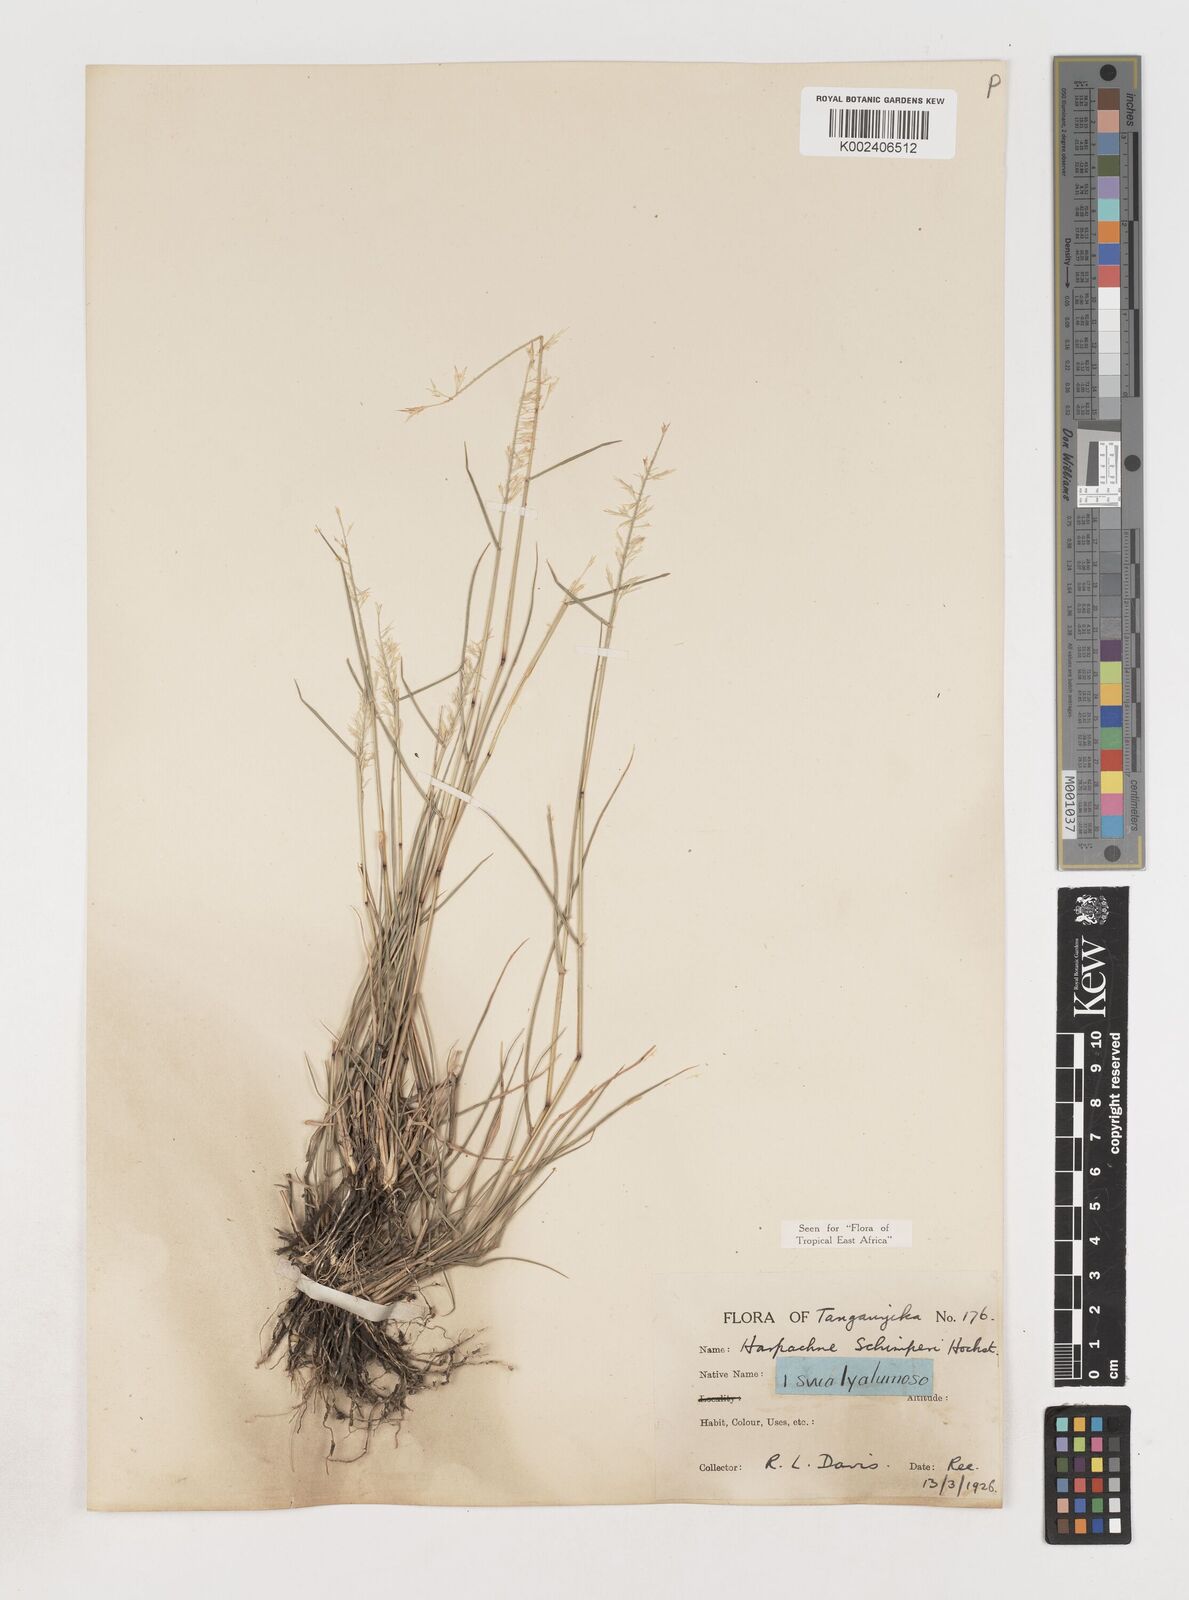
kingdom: Plantae
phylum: Tracheophyta
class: Liliopsida
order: Poales
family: Poaceae
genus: Harpachne
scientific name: Harpachne schimperi
